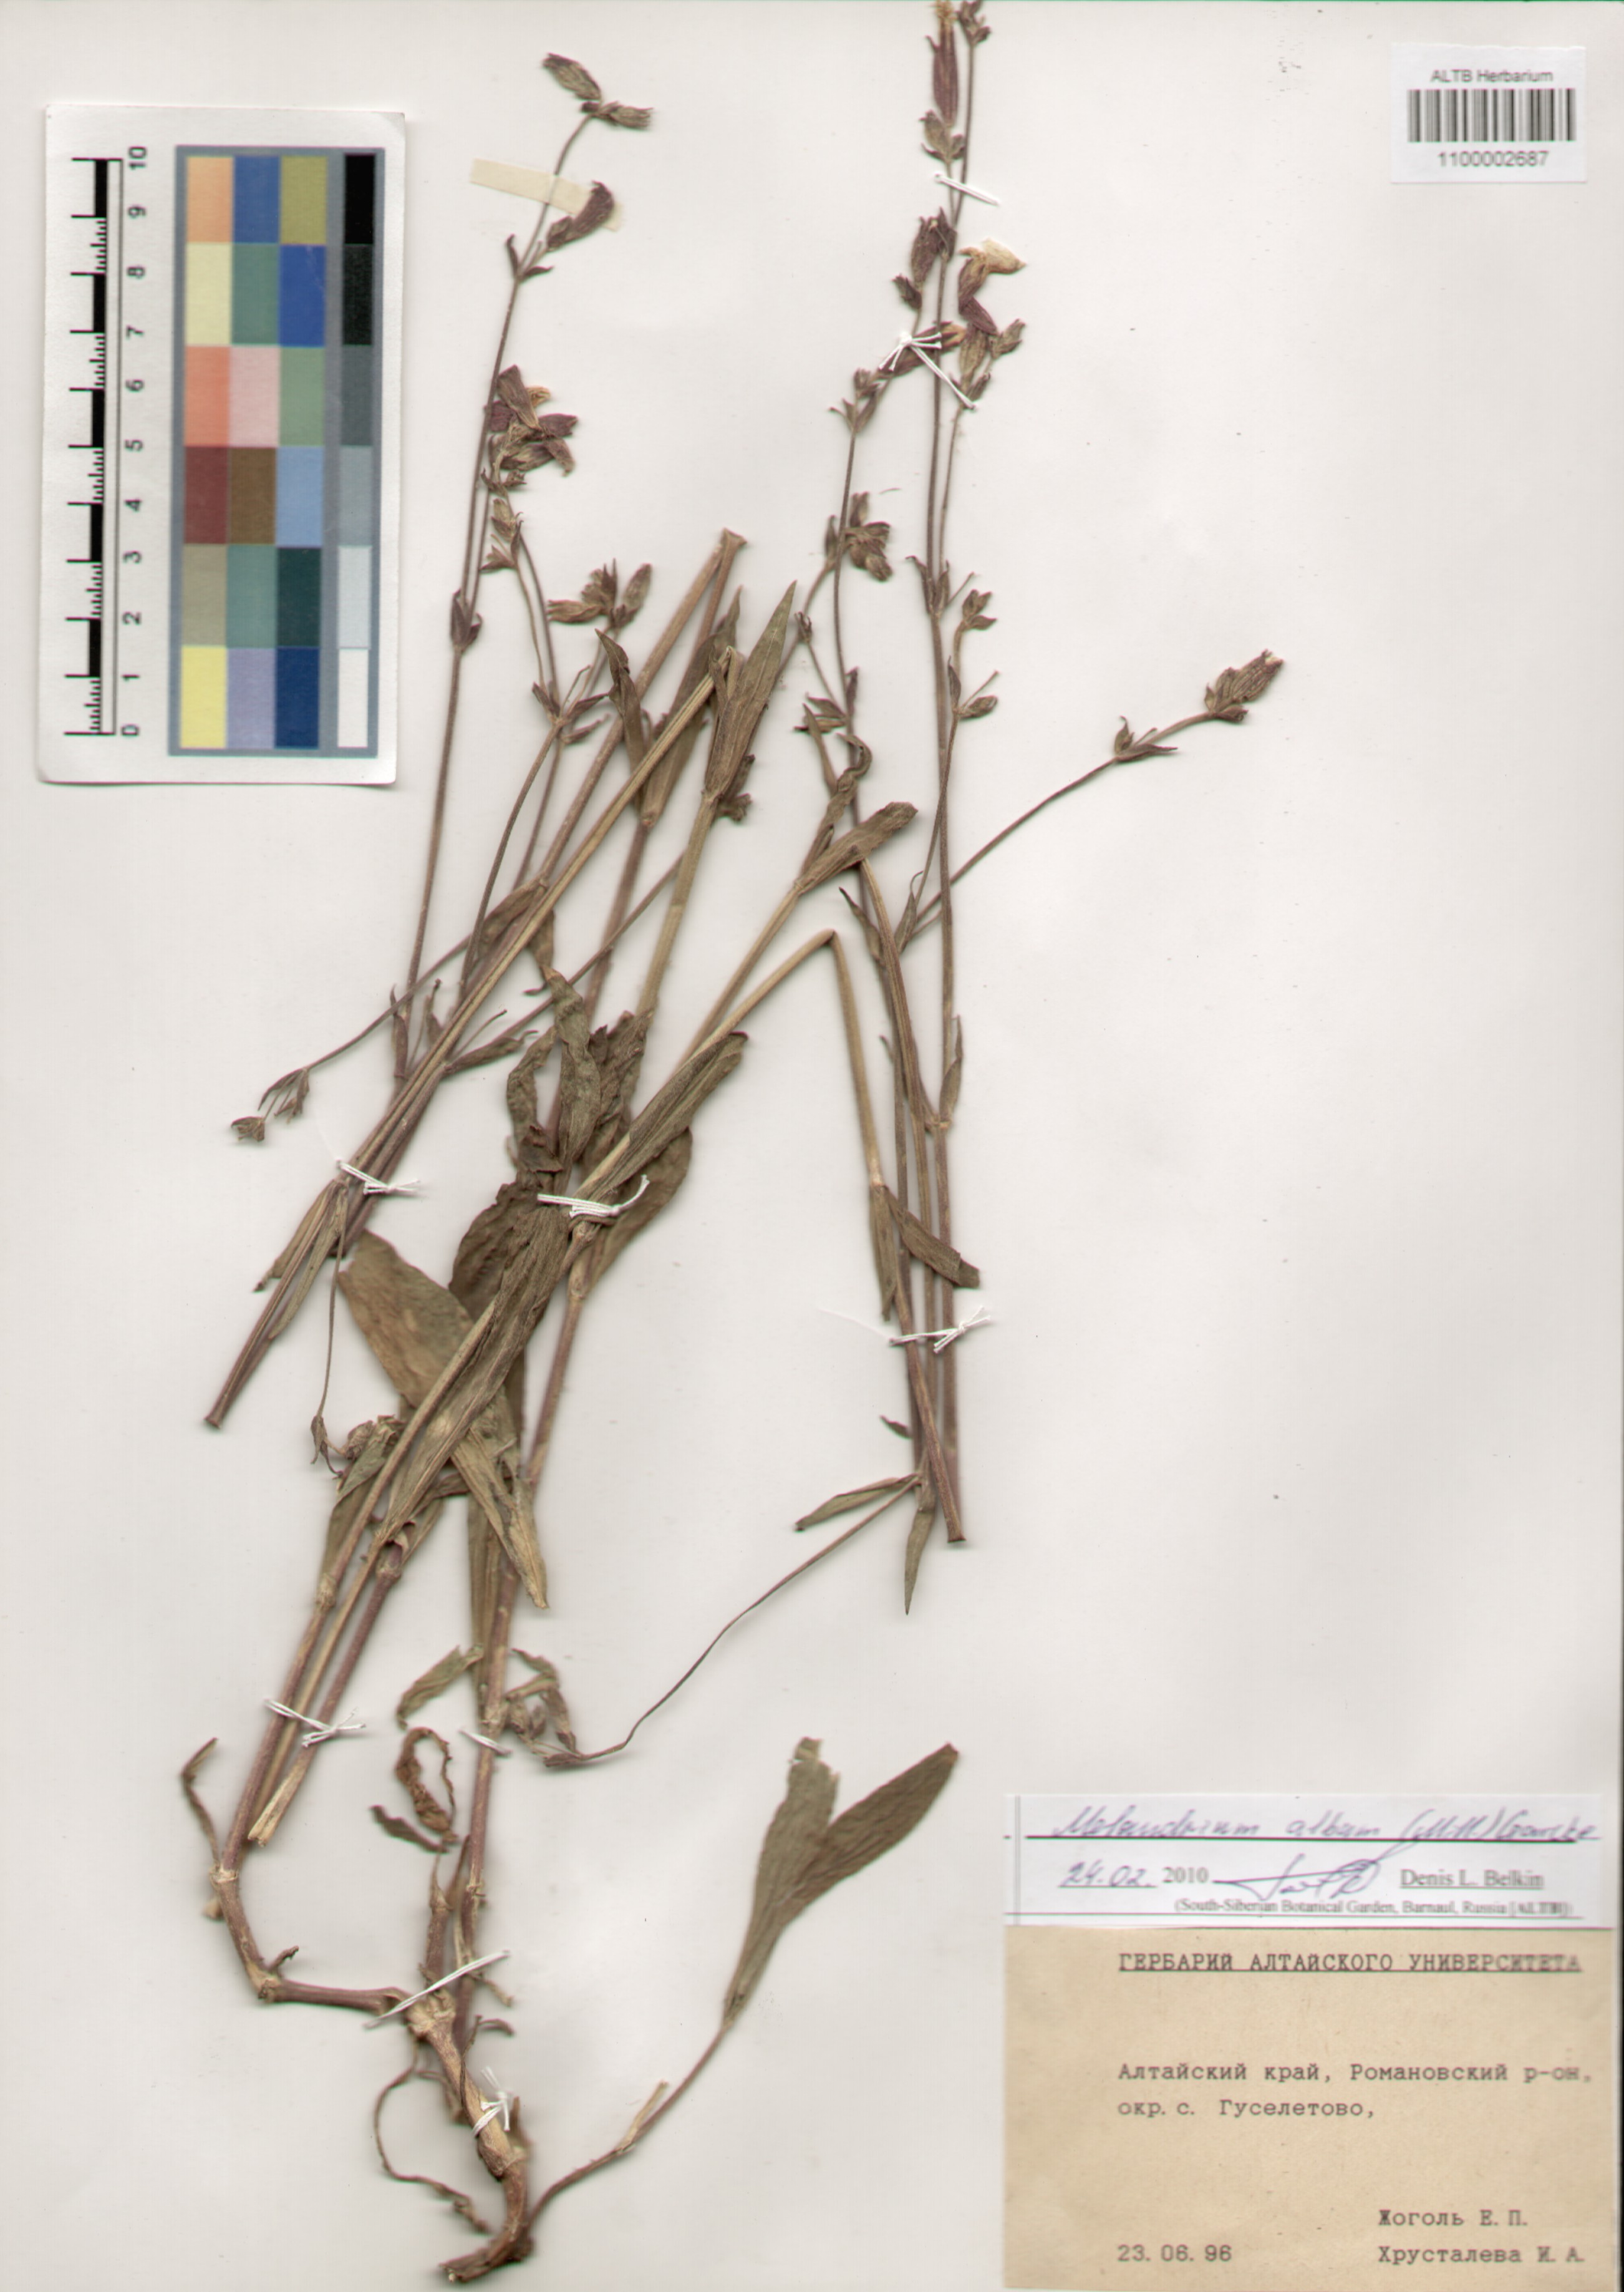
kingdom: Plantae
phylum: Tracheophyta
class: Magnoliopsida
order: Caryophyllales
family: Caryophyllaceae
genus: Silene
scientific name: Silene latifolia
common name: White campion
